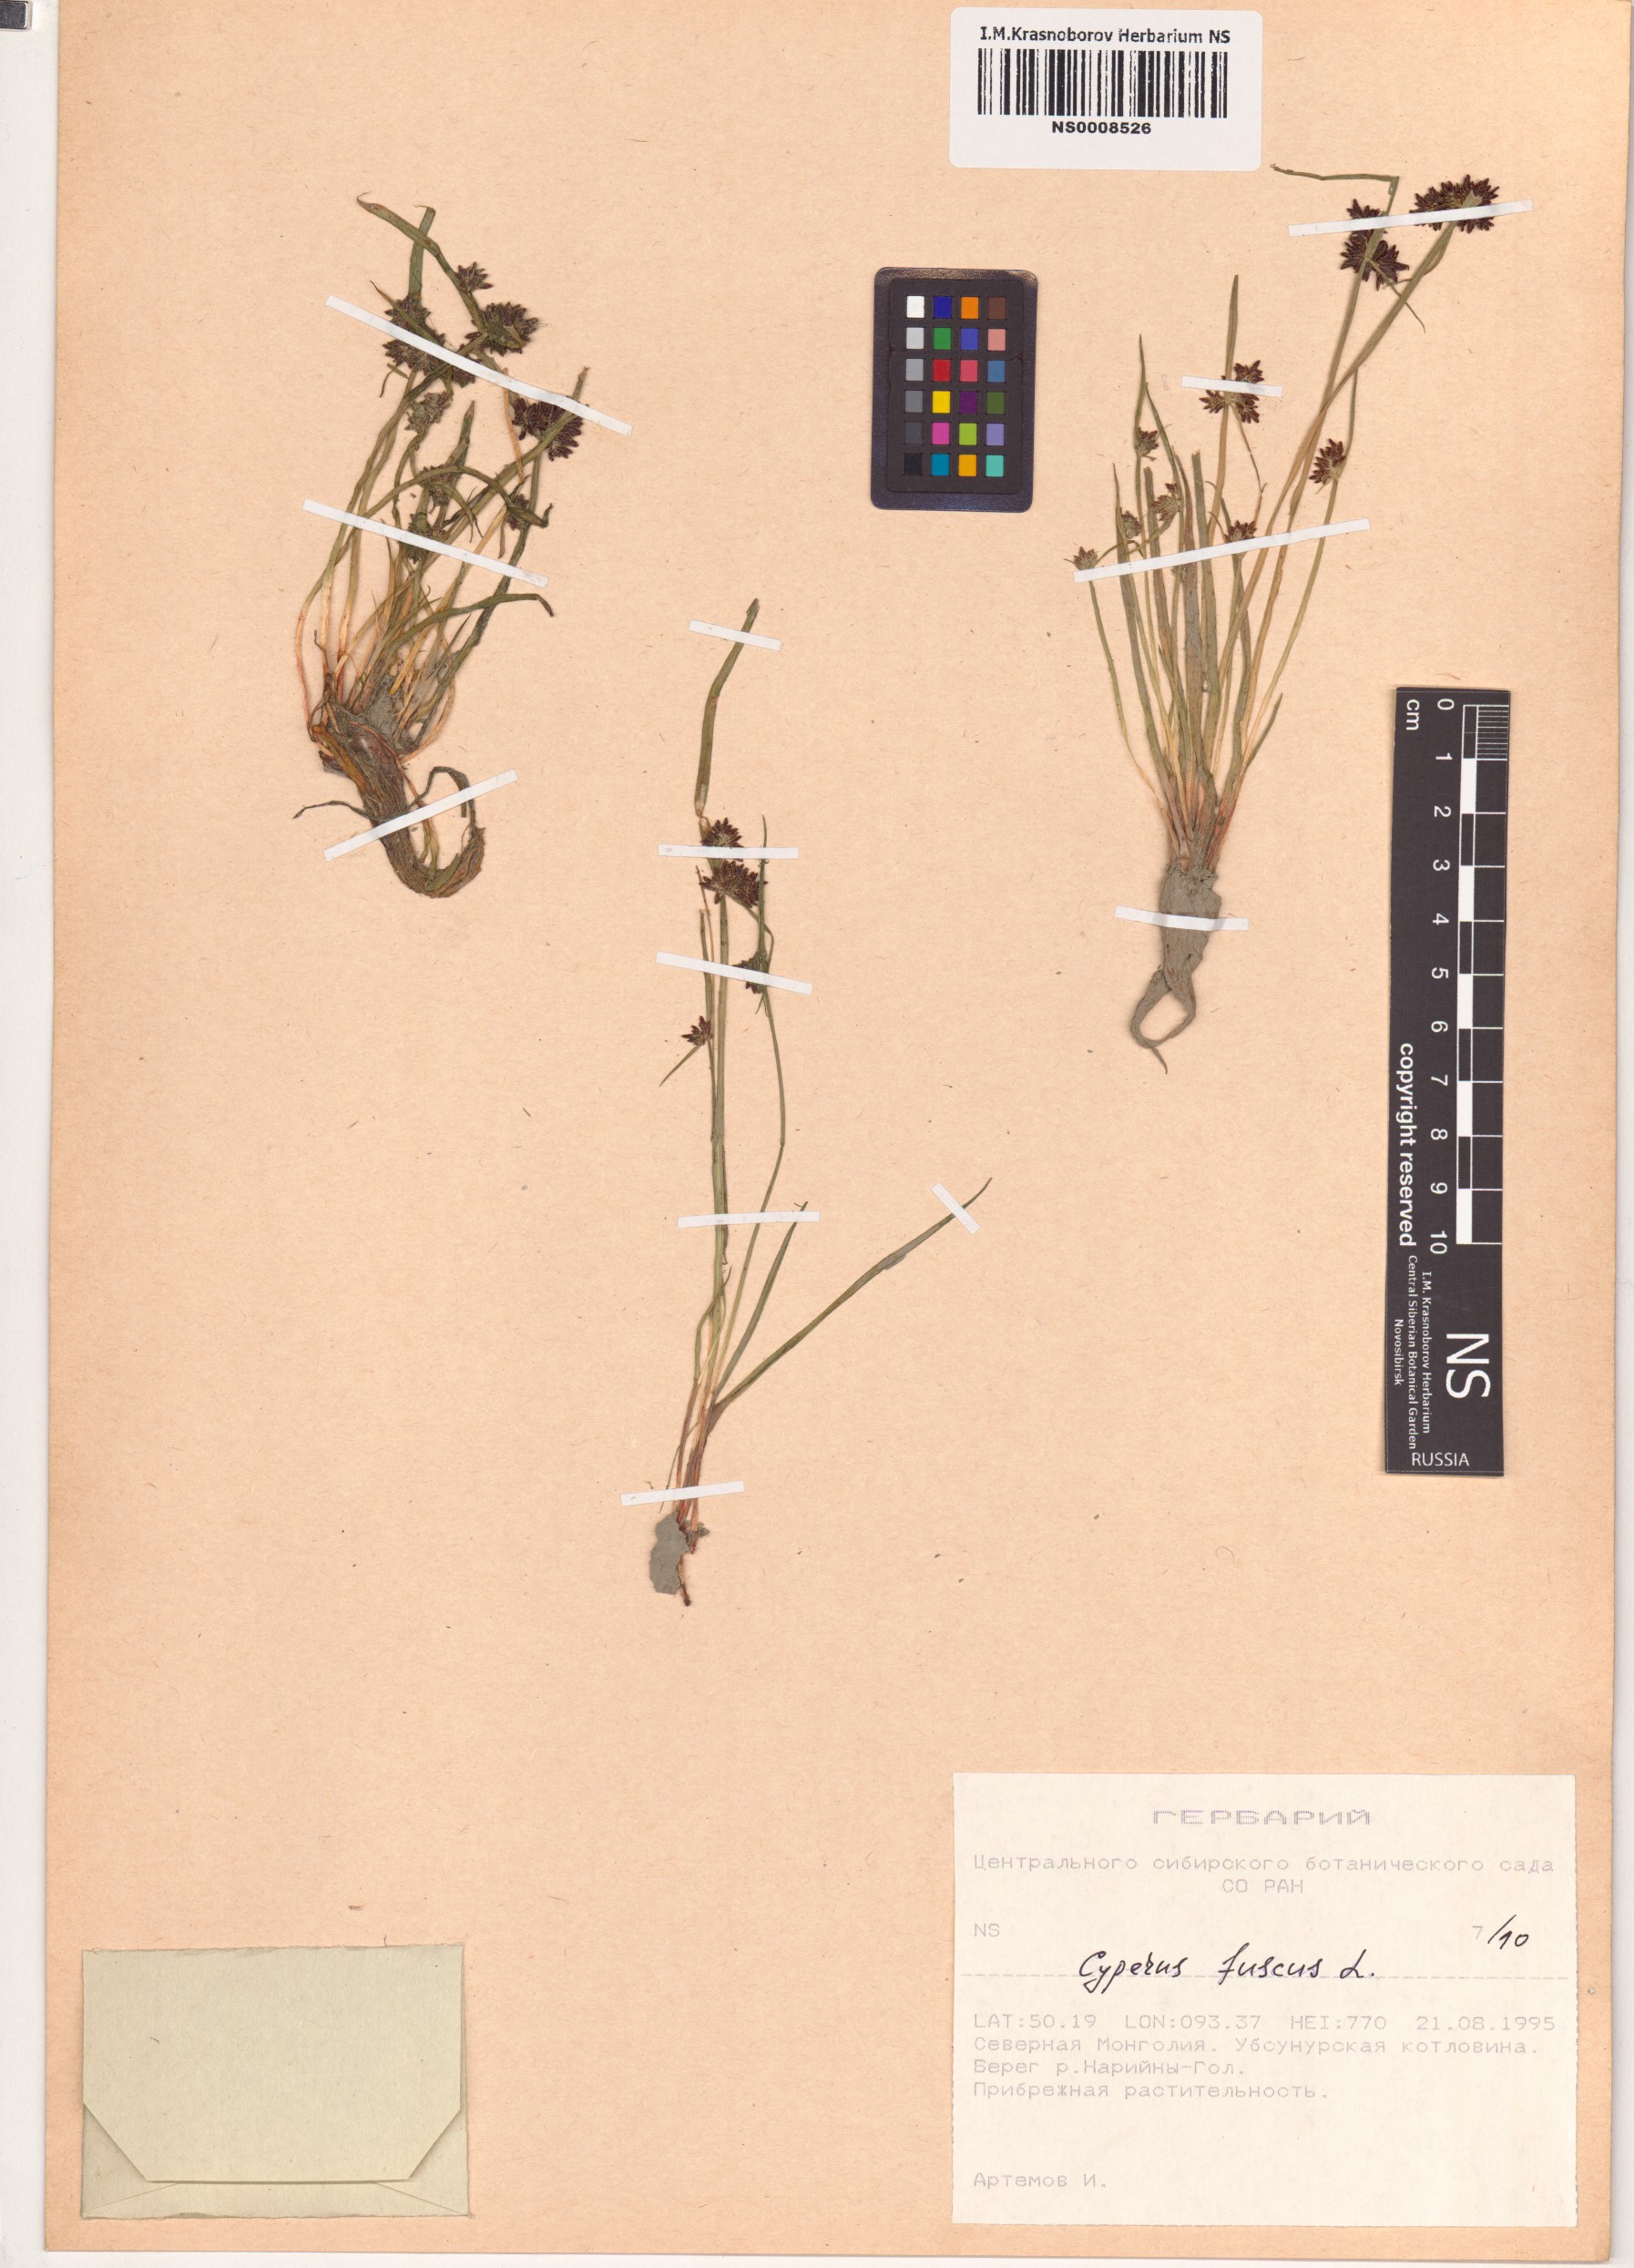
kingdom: Plantae
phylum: Tracheophyta
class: Liliopsida
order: Poales
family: Cyperaceae
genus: Cyperus
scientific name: Cyperus fuscus
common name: Brown galingale
